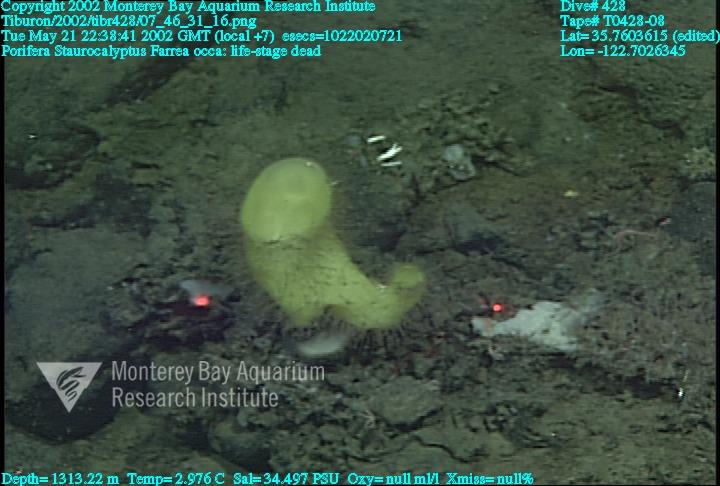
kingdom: Animalia
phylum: Porifera
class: Hexactinellida
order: Sceptrulophora
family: Farreidae
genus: Farrea
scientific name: Farrea occa
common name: Reversed glass sponge
